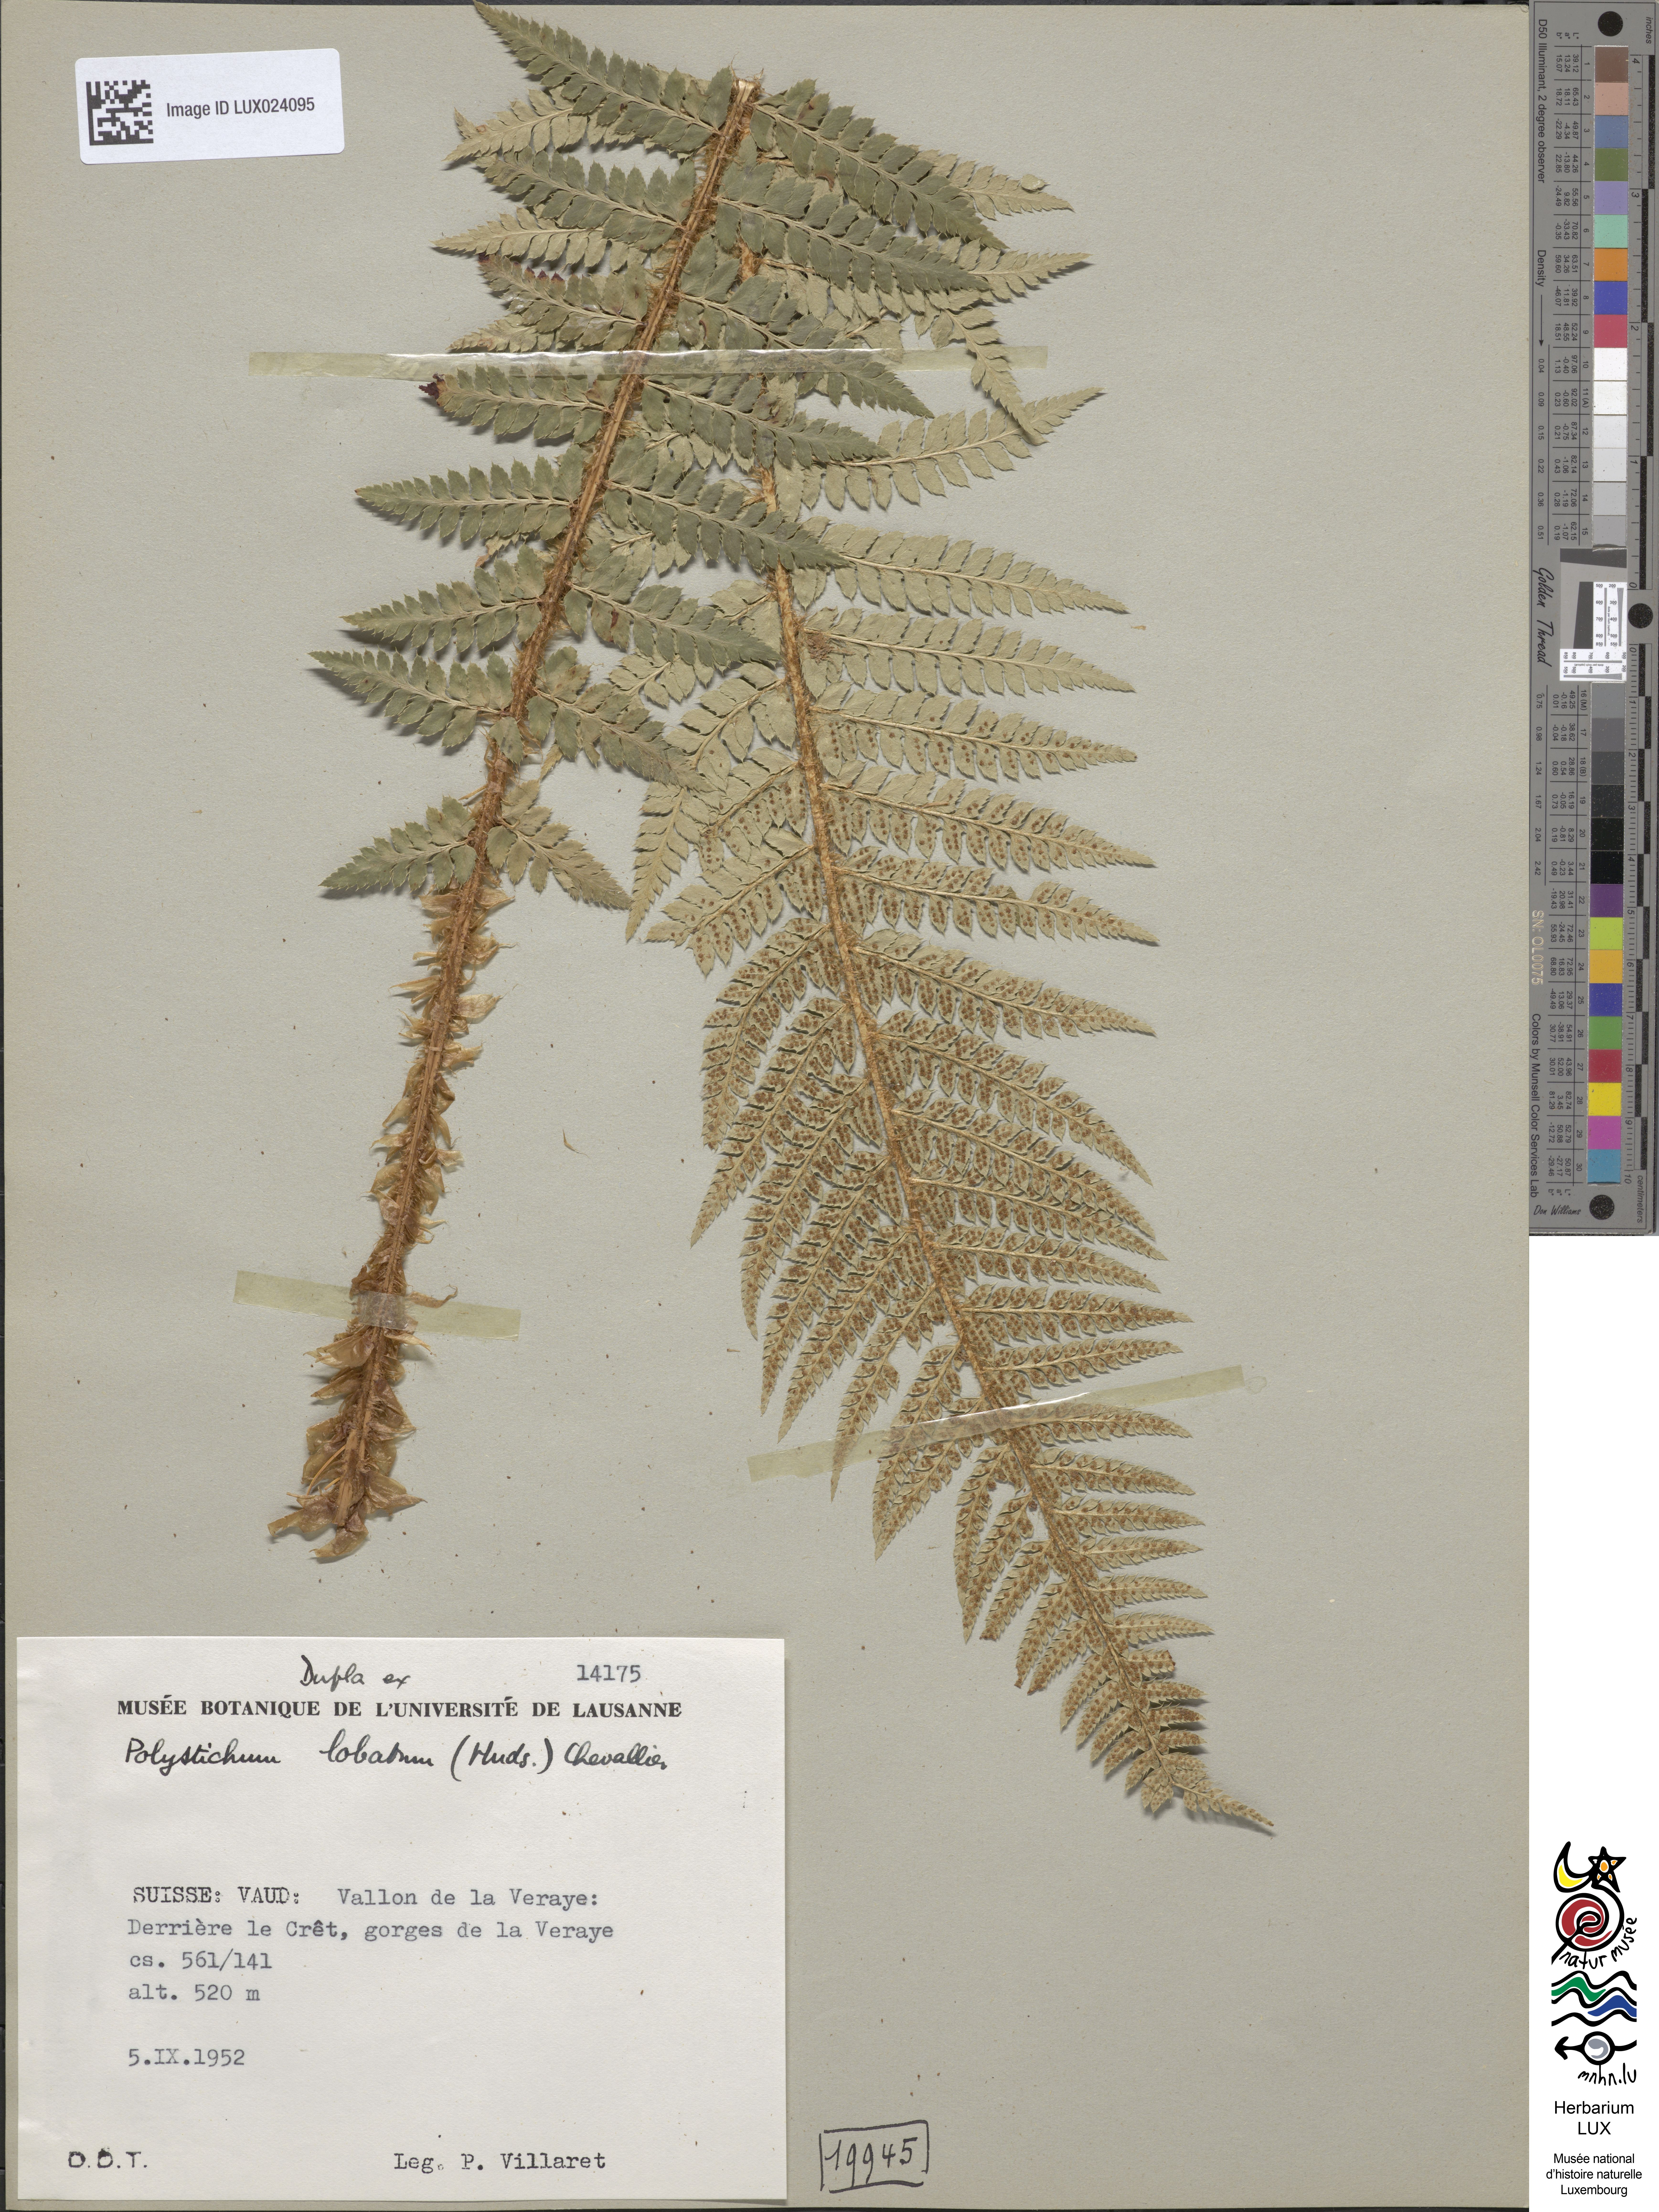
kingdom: Plantae
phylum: Tracheophyta
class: Polypodiopsida
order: Polypodiales
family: Dryopteridaceae
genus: Polystichum
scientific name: Polystichum aculeatum
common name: Hard shield-fern
